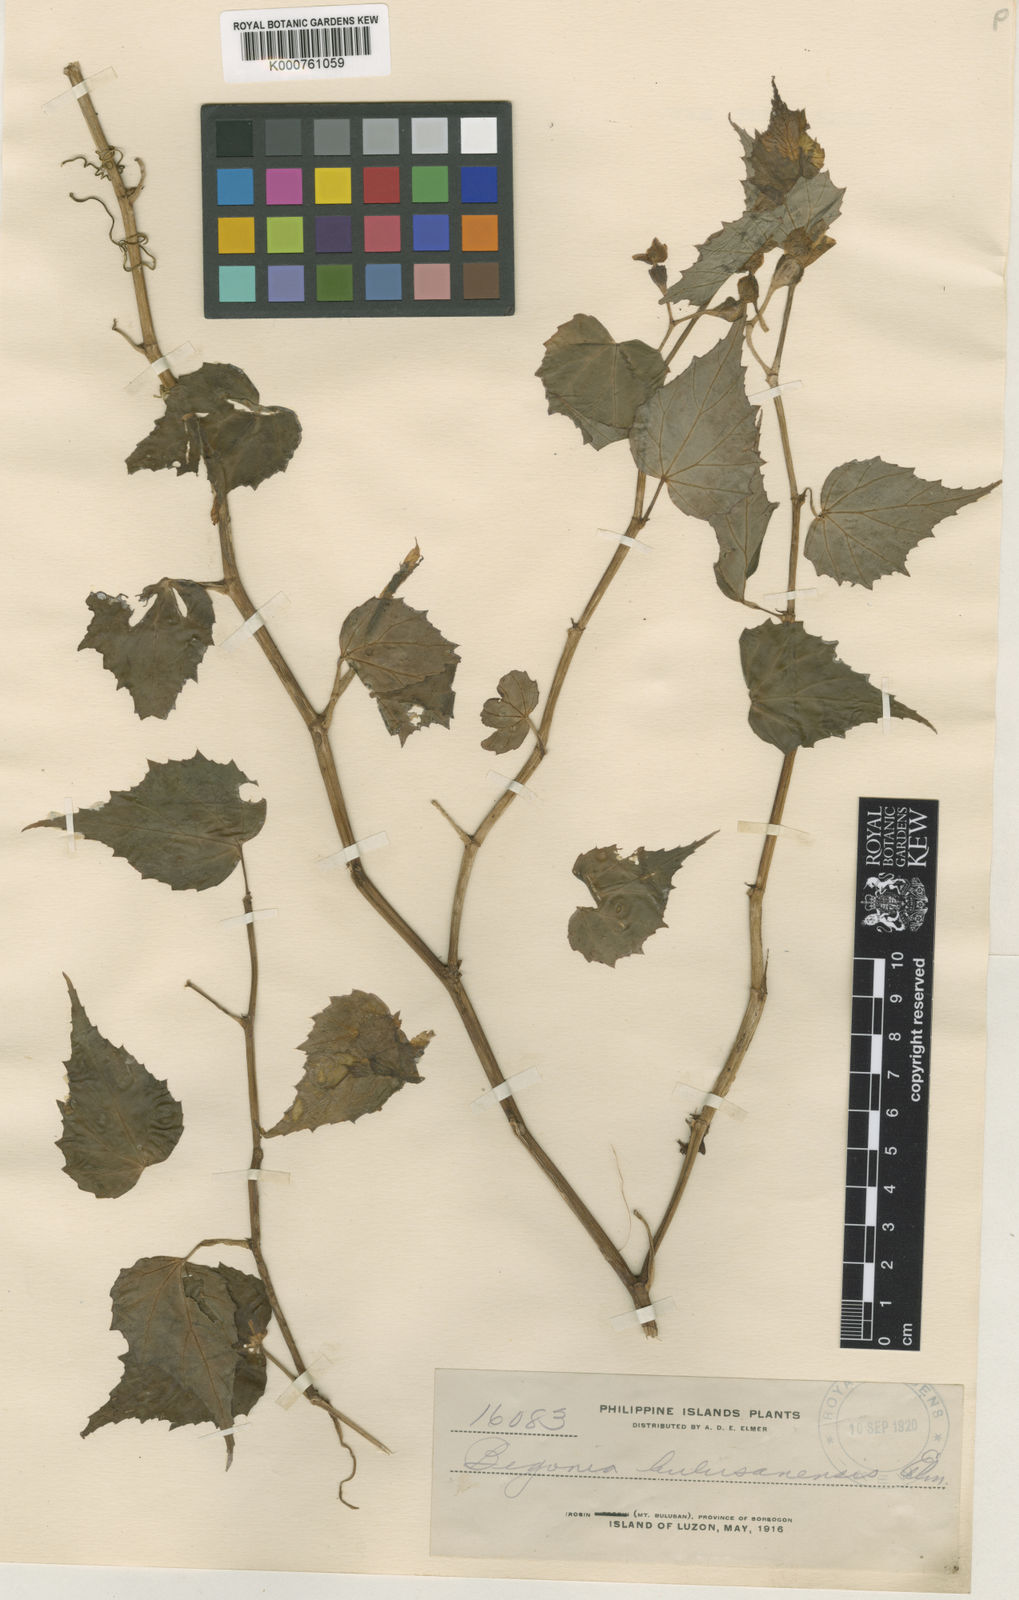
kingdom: Plantae
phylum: Tracheophyta
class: Magnoliopsida
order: Cucurbitales
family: Begoniaceae
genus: Begonia
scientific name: Begonia binuangensis
